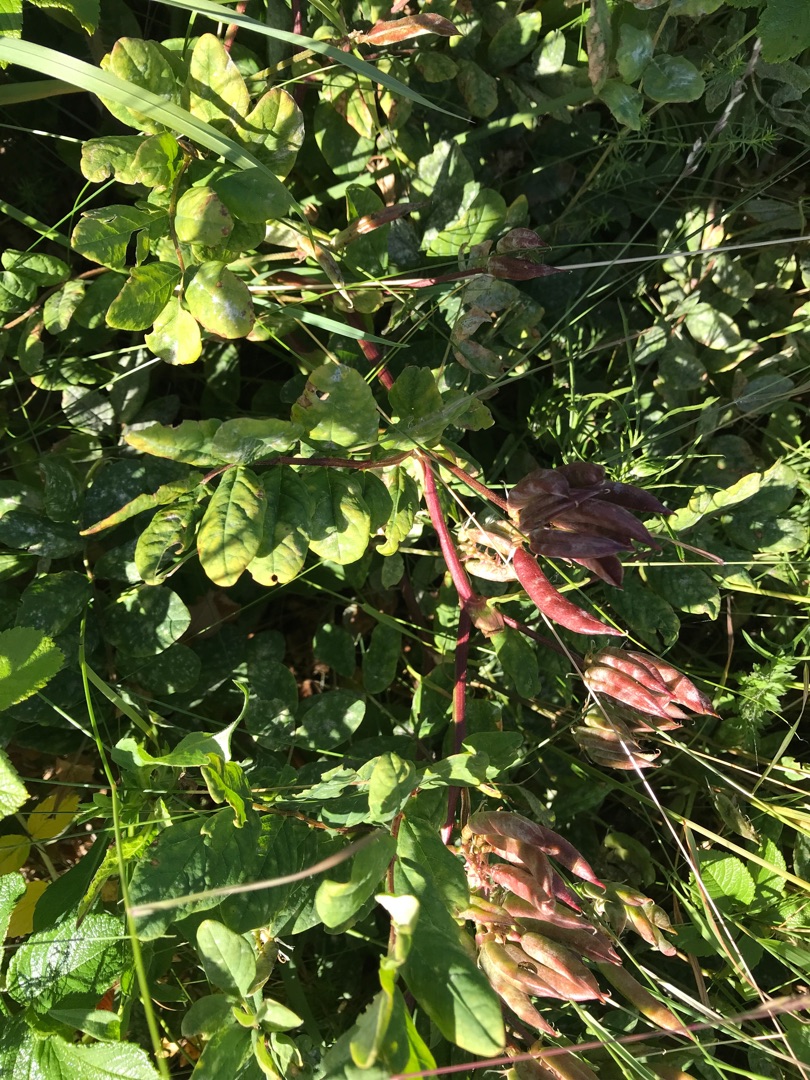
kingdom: Plantae
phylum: Tracheophyta
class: Magnoliopsida
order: Fabales
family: Fabaceae
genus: Astragalus
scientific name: Astragalus glycyphyllos
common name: Sød astragel
